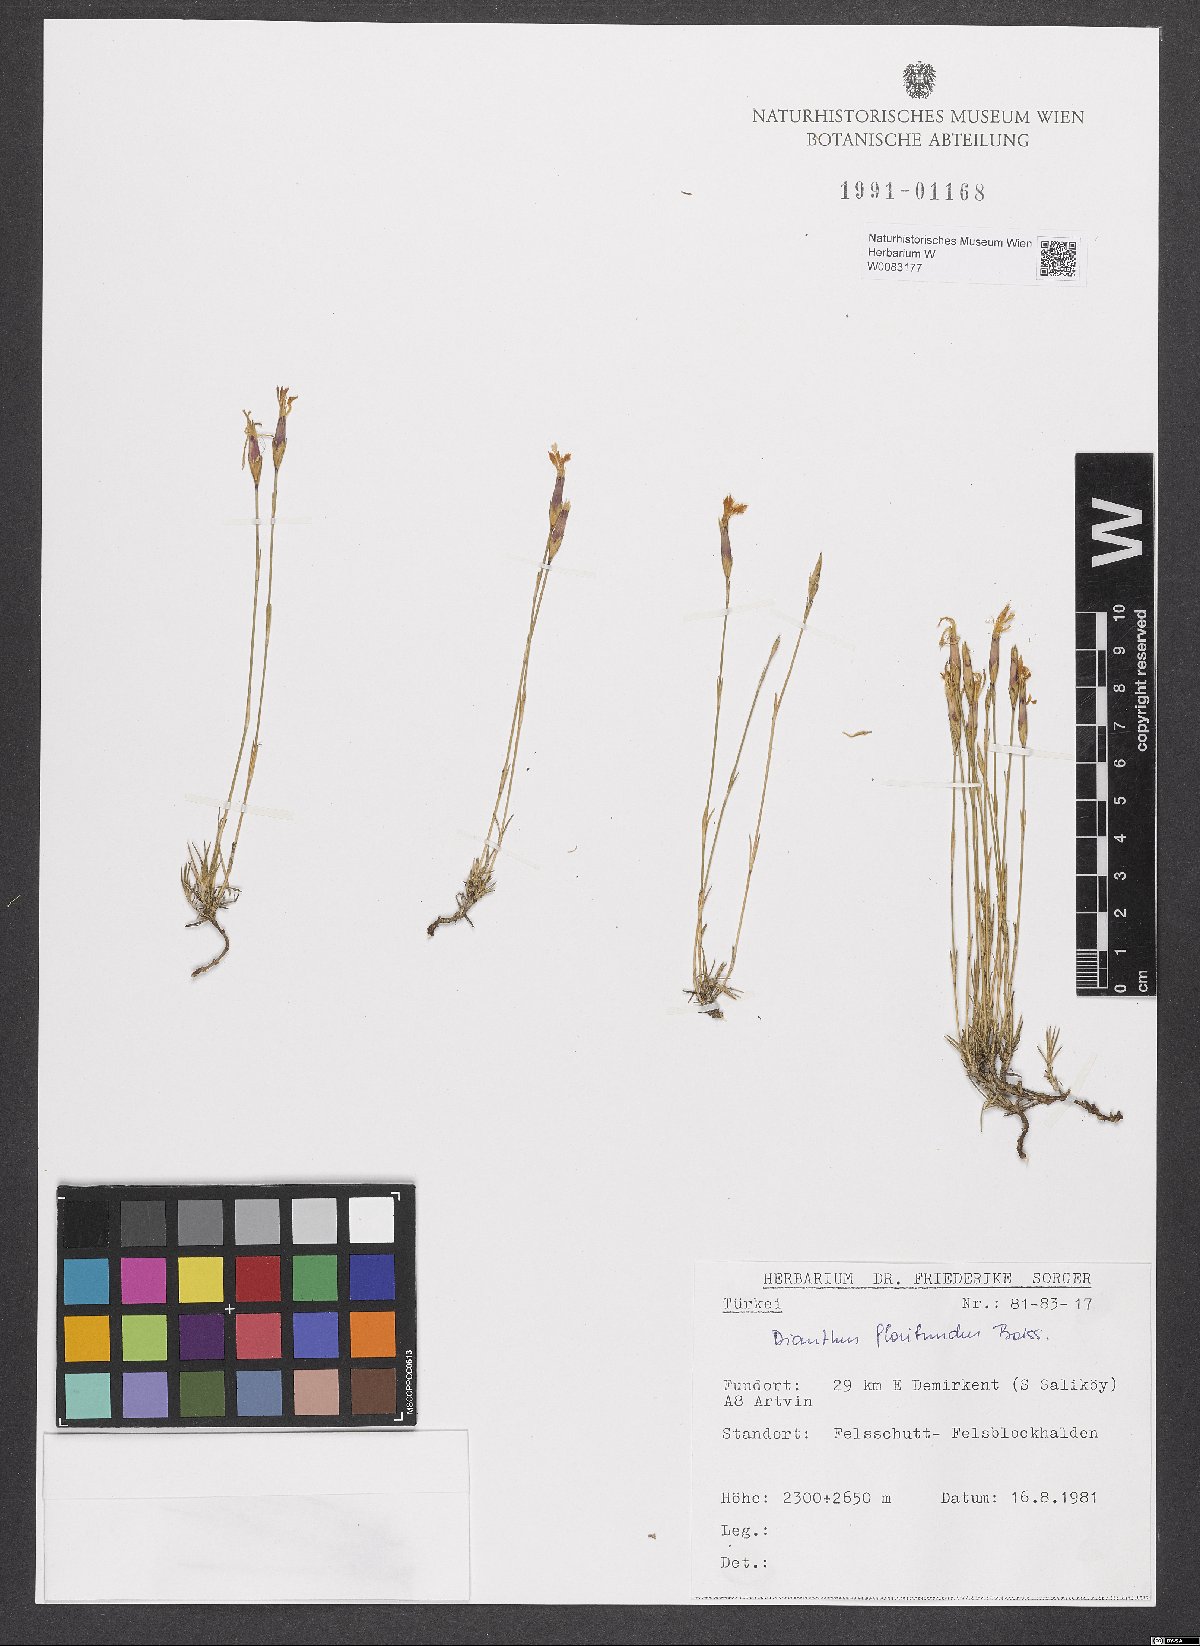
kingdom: Plantae
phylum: Tracheophyta
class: Magnoliopsida
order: Caryophyllales
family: Caryophyllaceae
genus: Dianthus
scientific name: Dianthus floribundus
